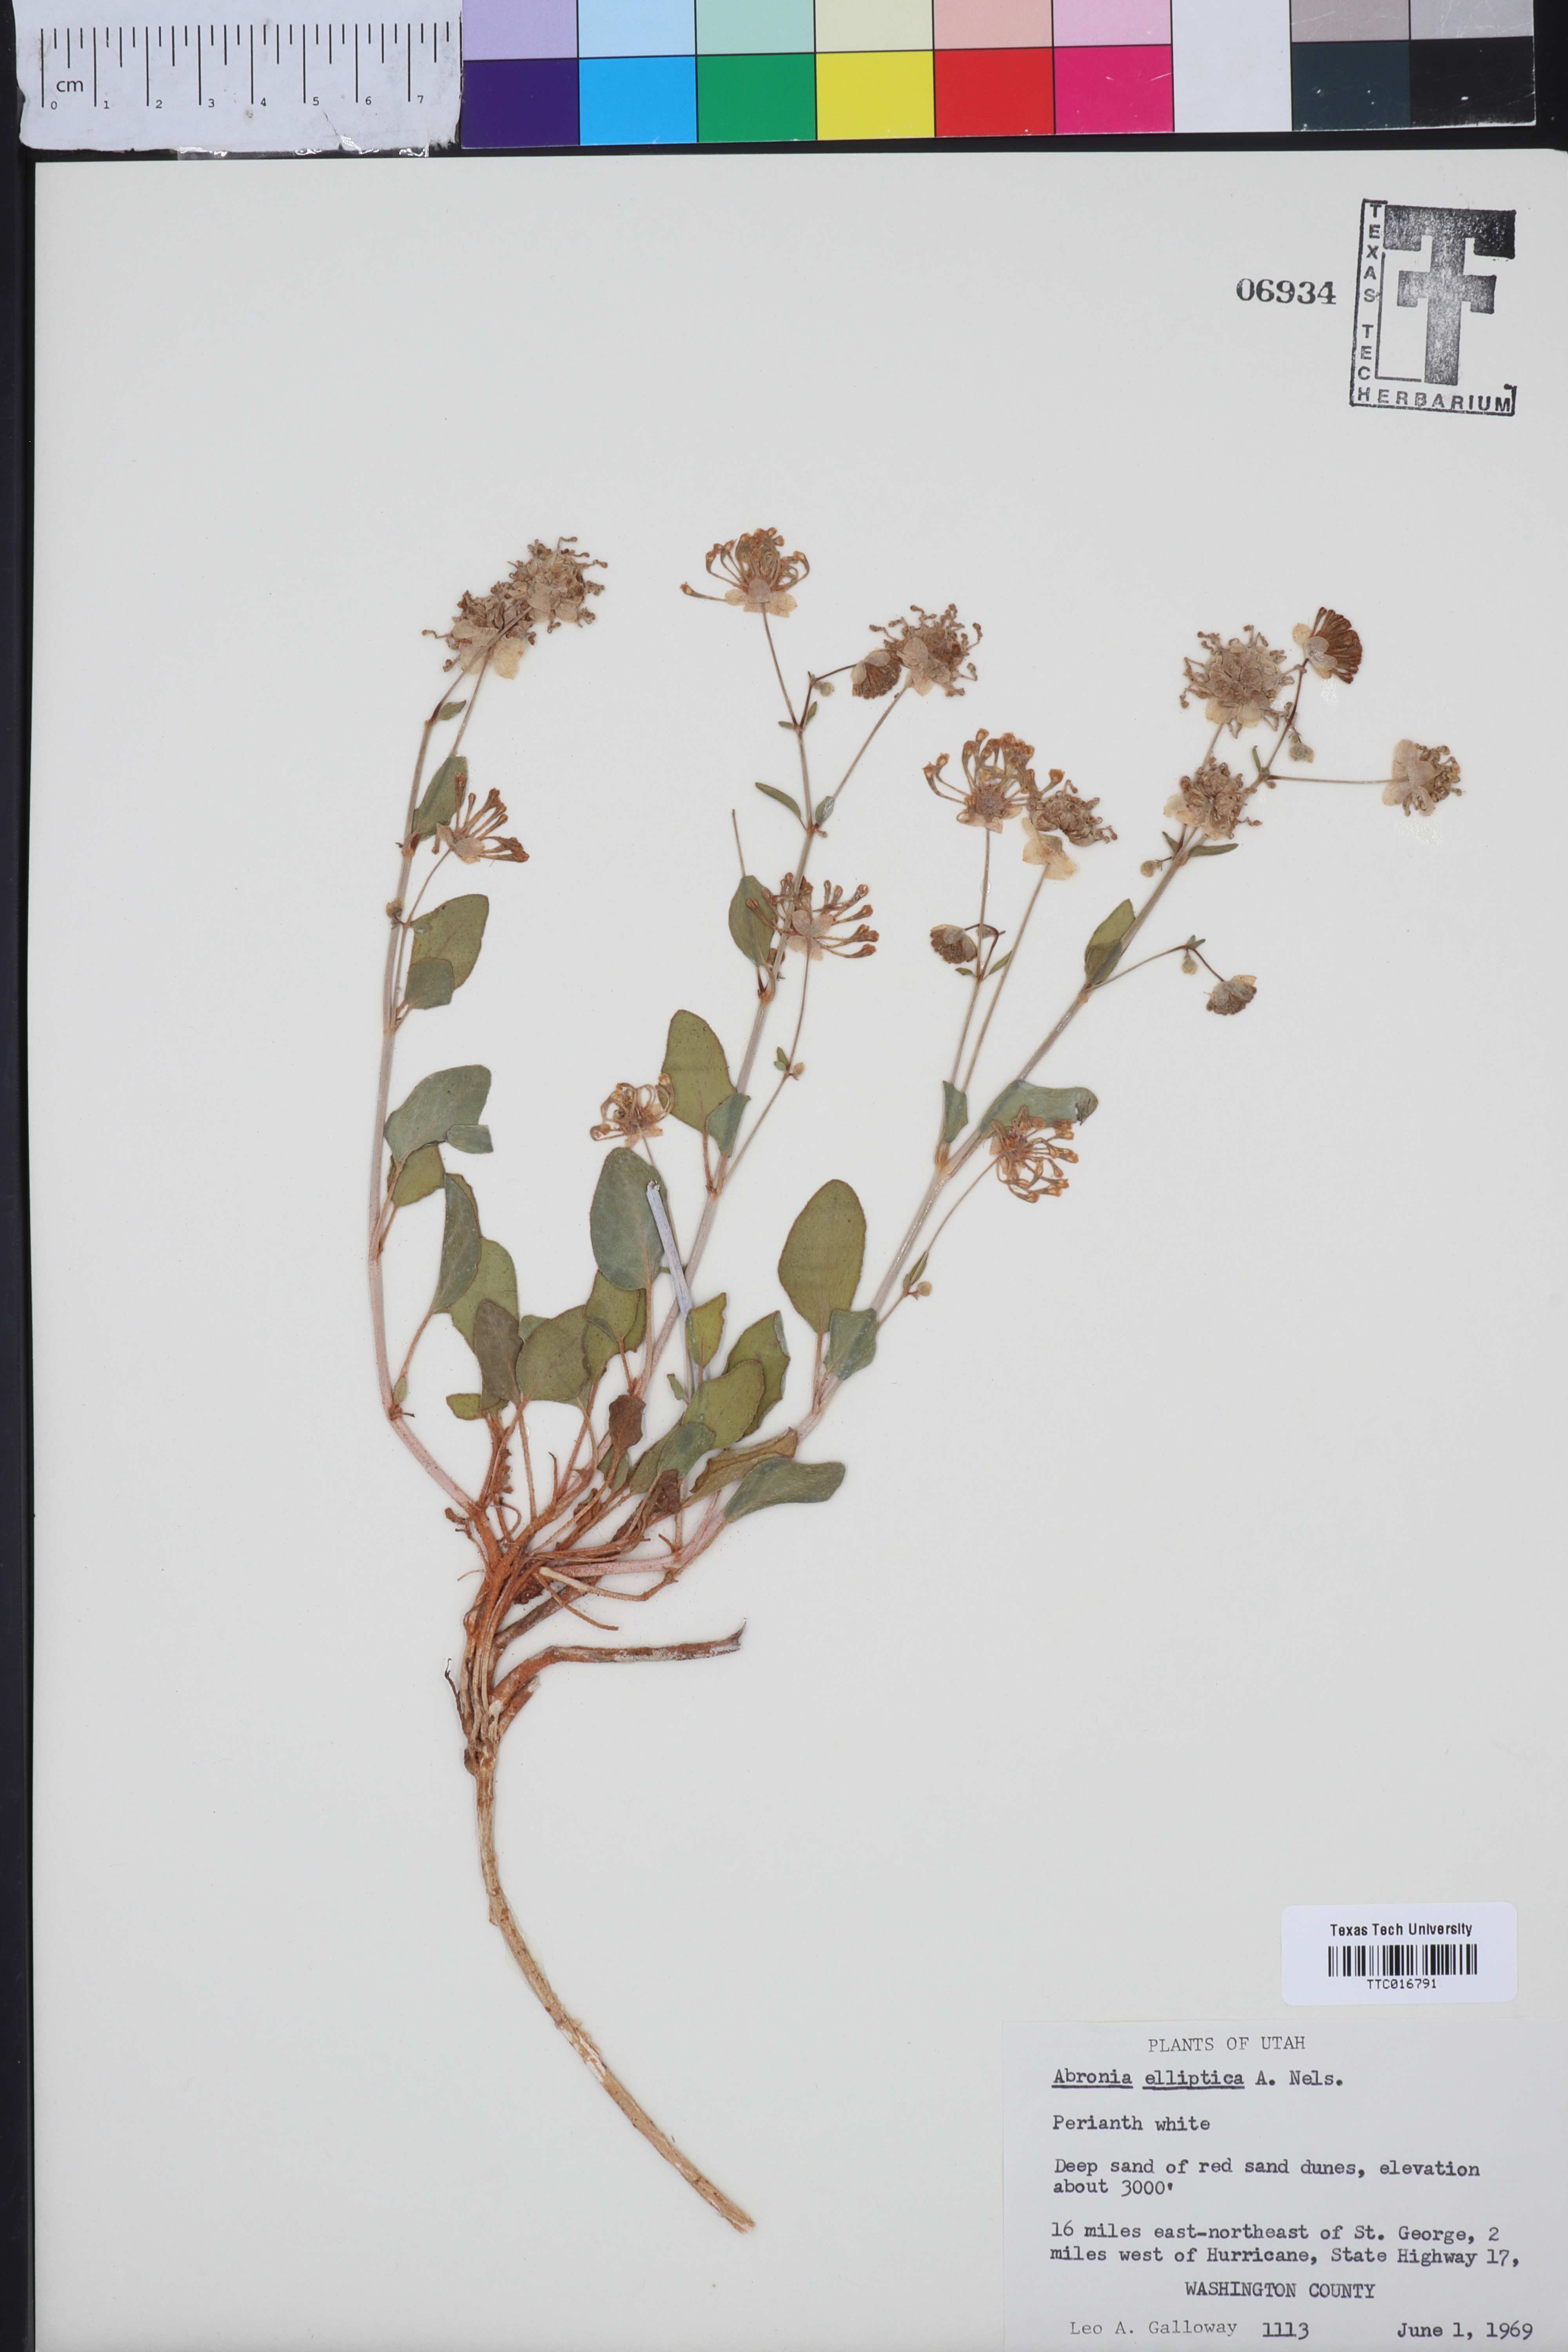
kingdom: Plantae
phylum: Tracheophyta
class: Magnoliopsida
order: Caryophyllales
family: Nyctaginaceae
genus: Abronia
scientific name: Abronia elliptica
